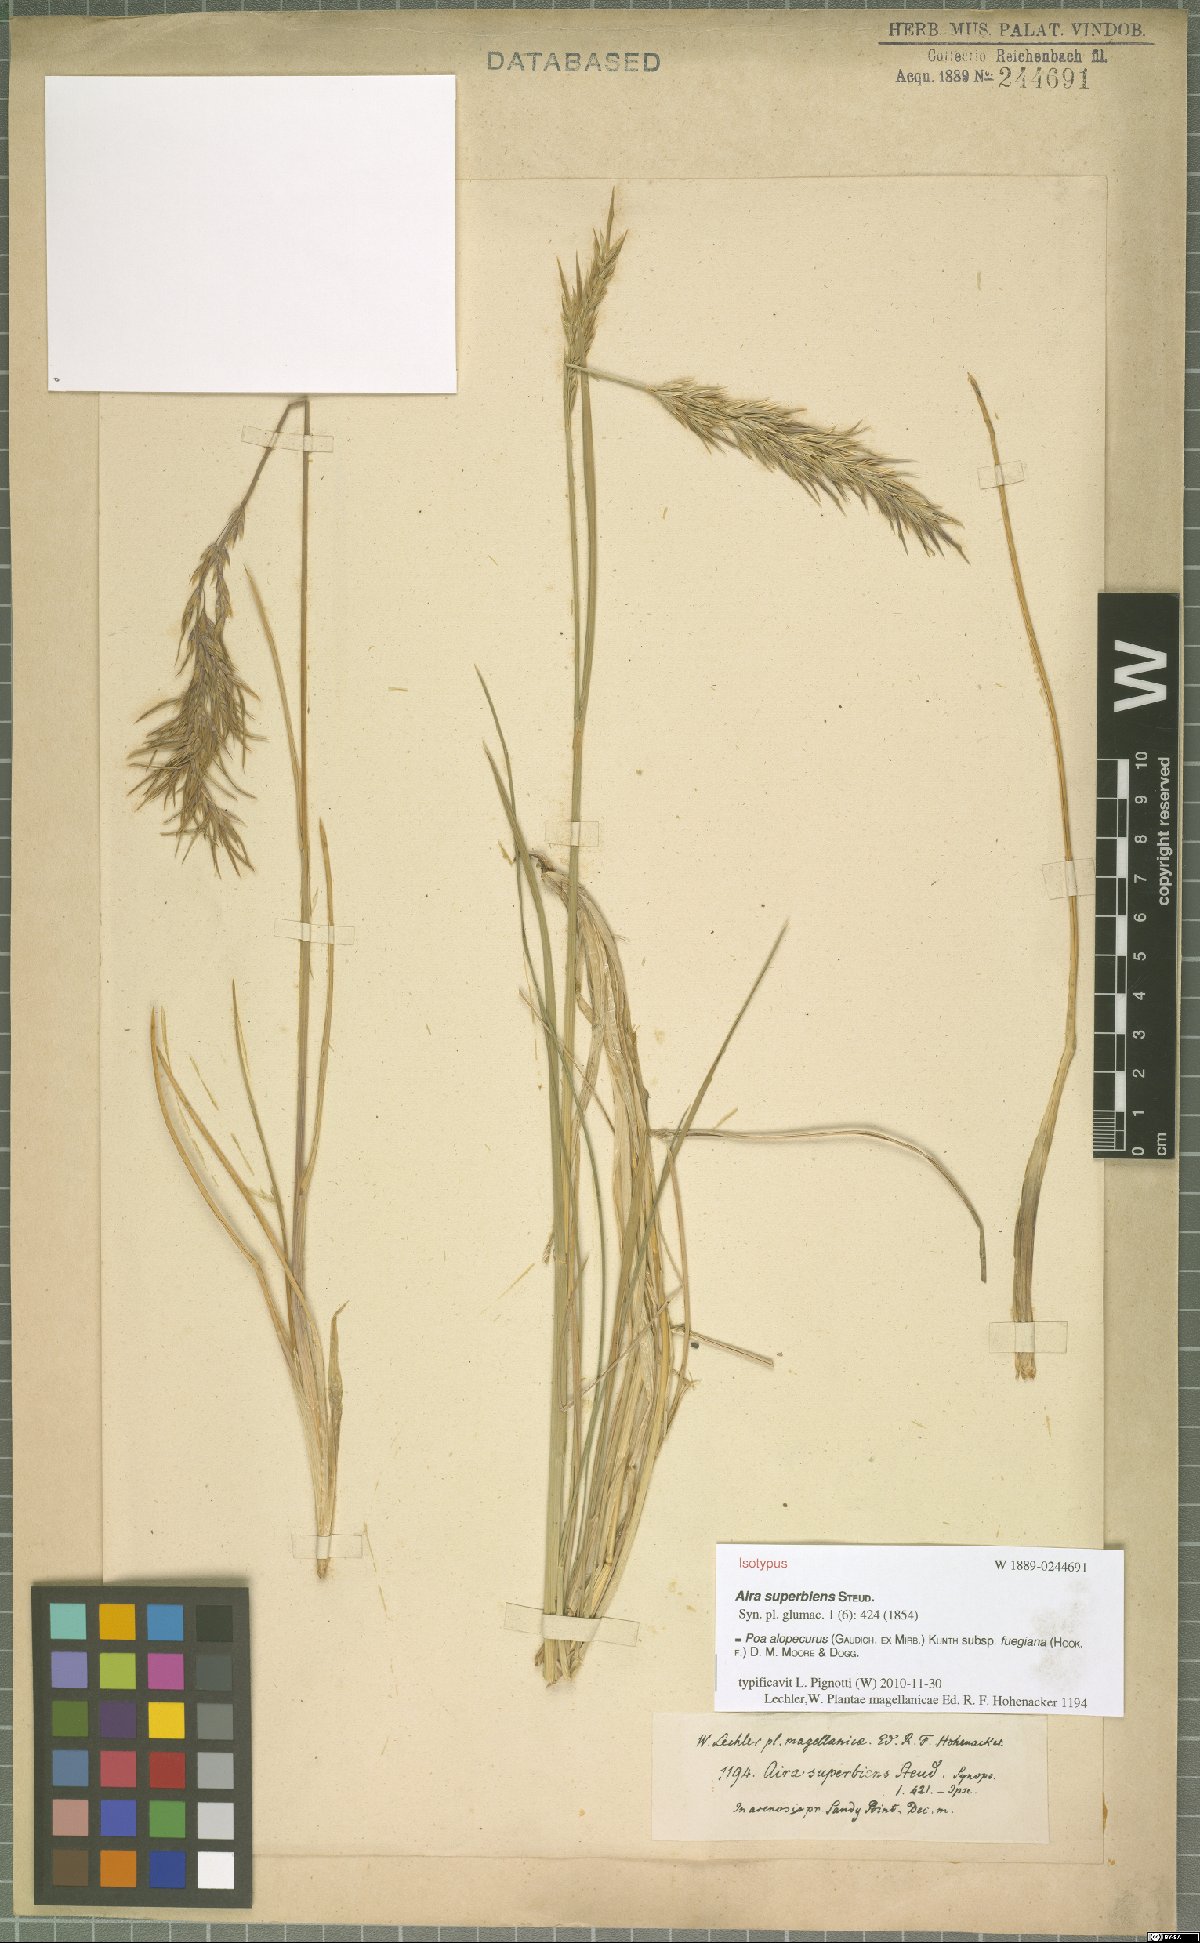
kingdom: Plantae
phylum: Tracheophyta
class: Liliopsida
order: Poales
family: Poaceae
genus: Poa
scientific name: Poa alopecurus
